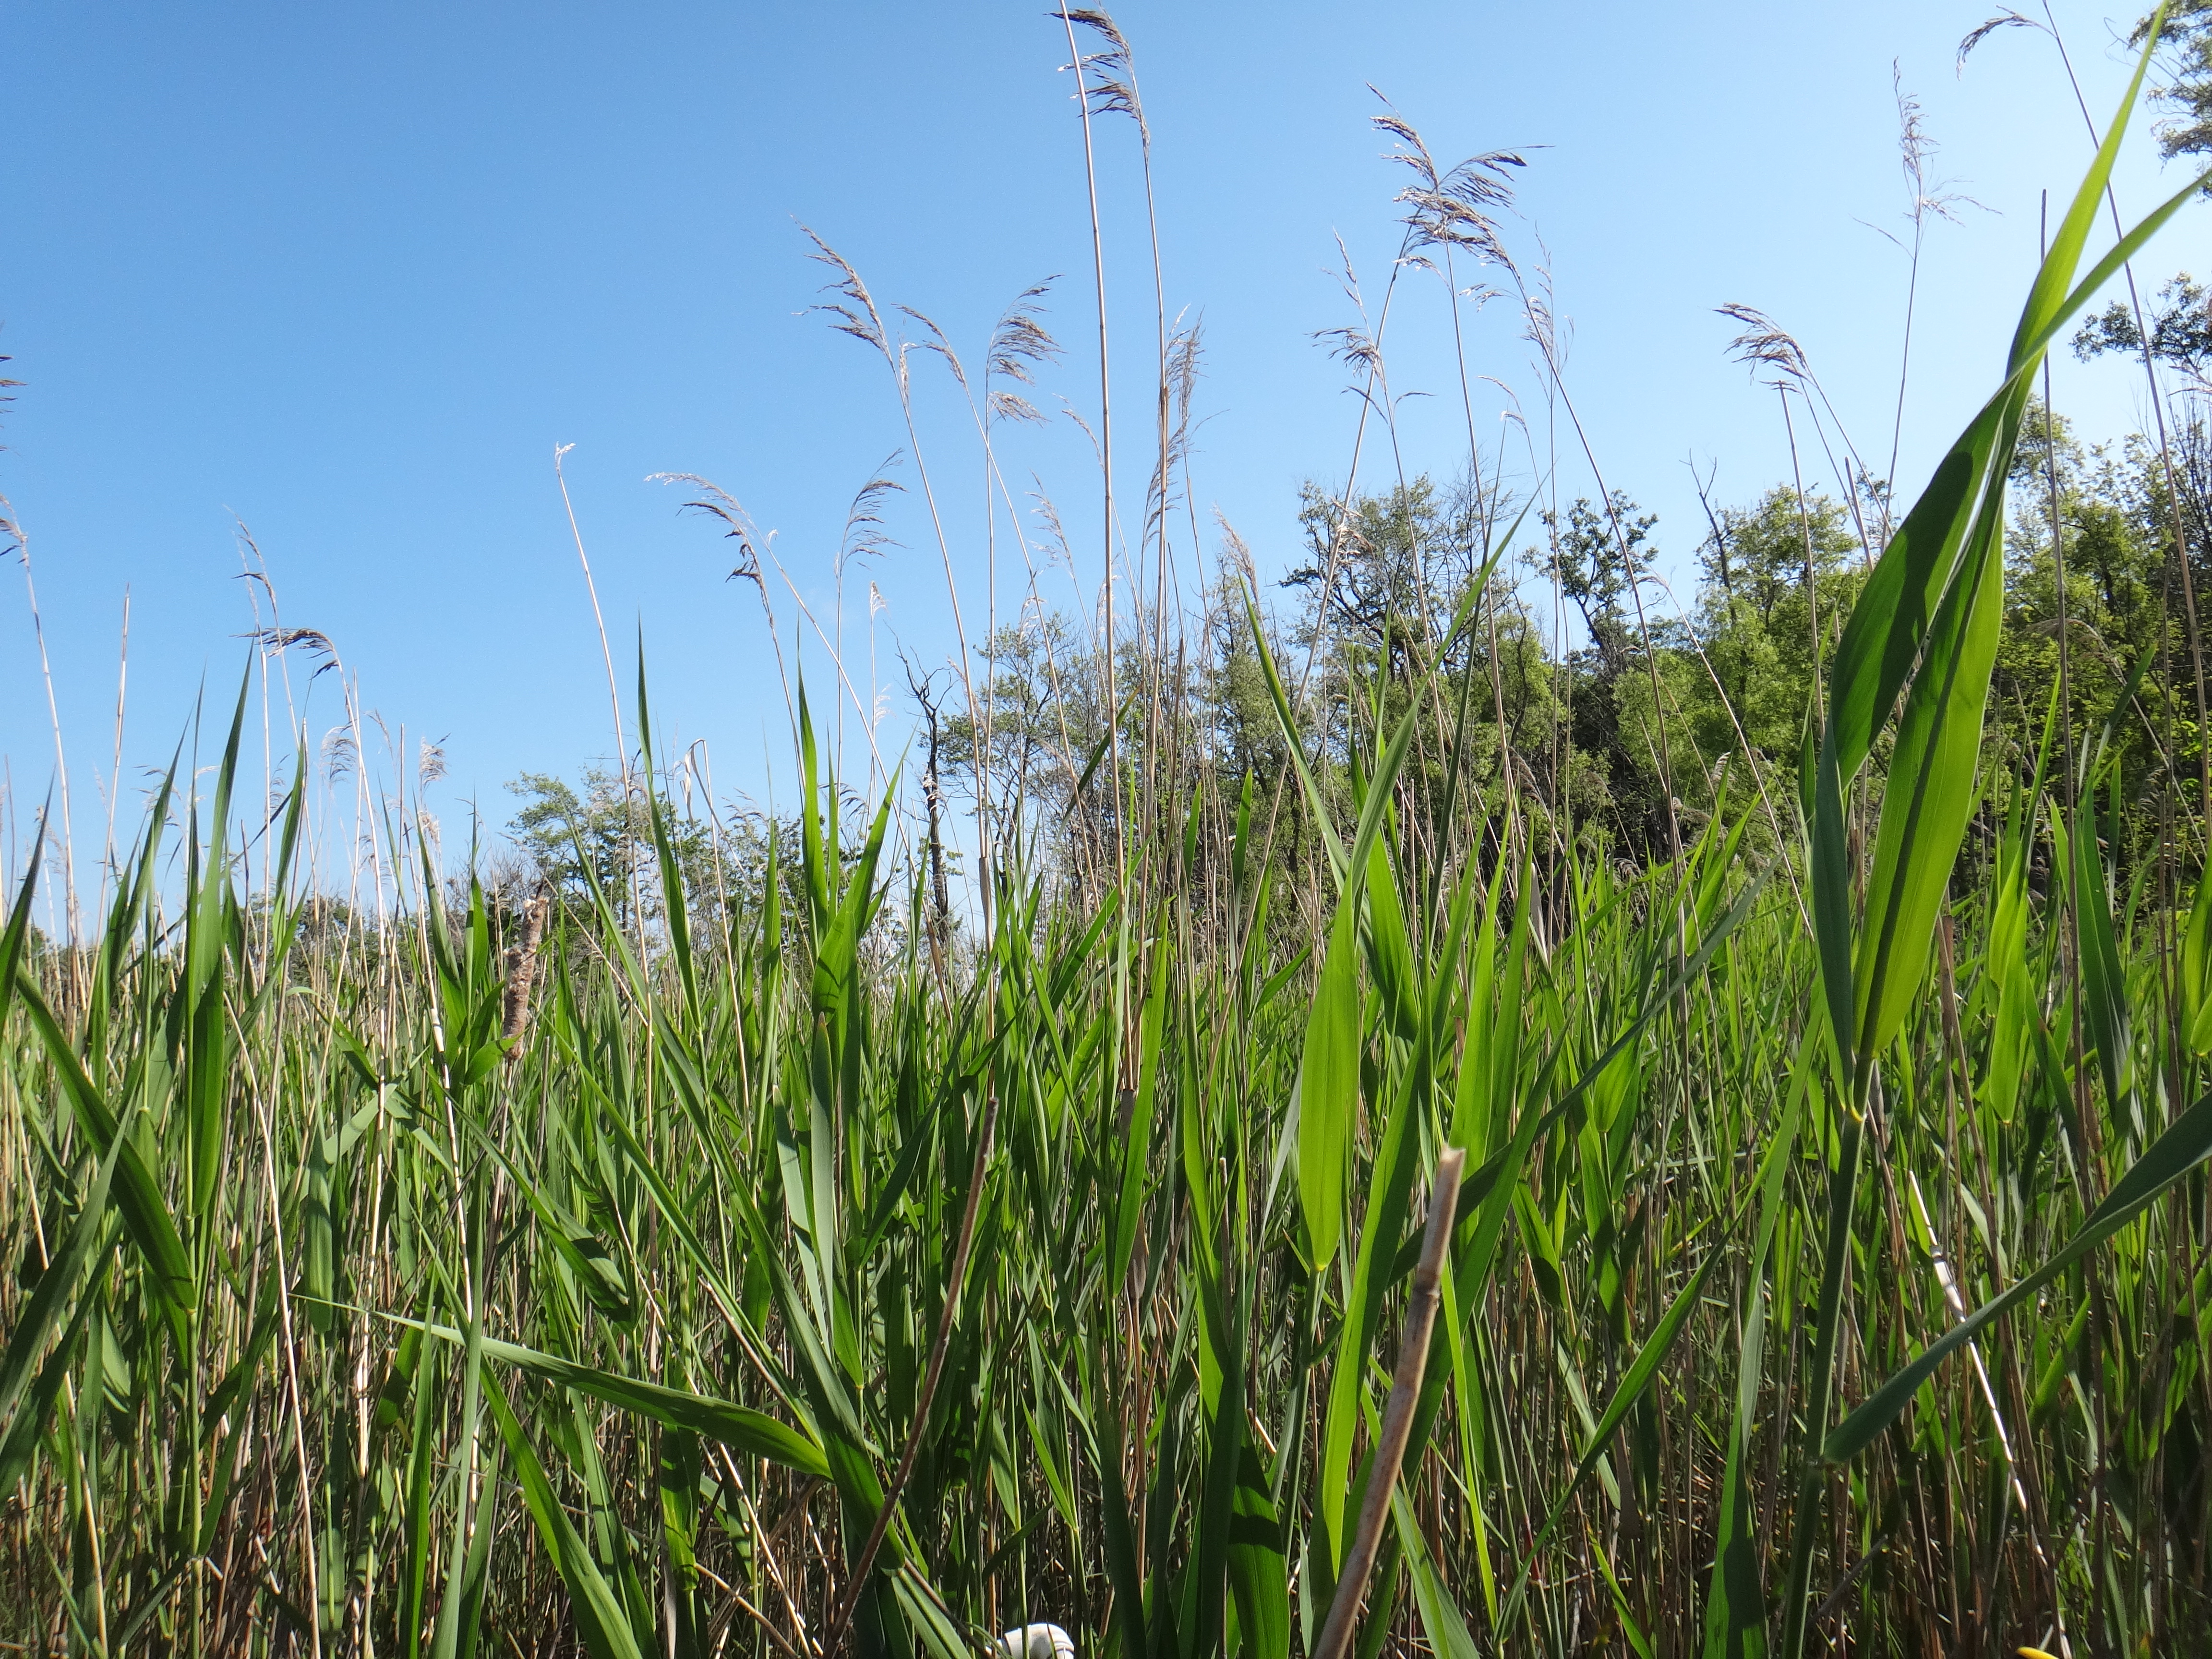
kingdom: Plantae
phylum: Tracheophyta
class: Liliopsida
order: Poales
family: Typhaceae
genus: Typha
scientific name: Typha latifolia
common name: Broadleaf cattail
